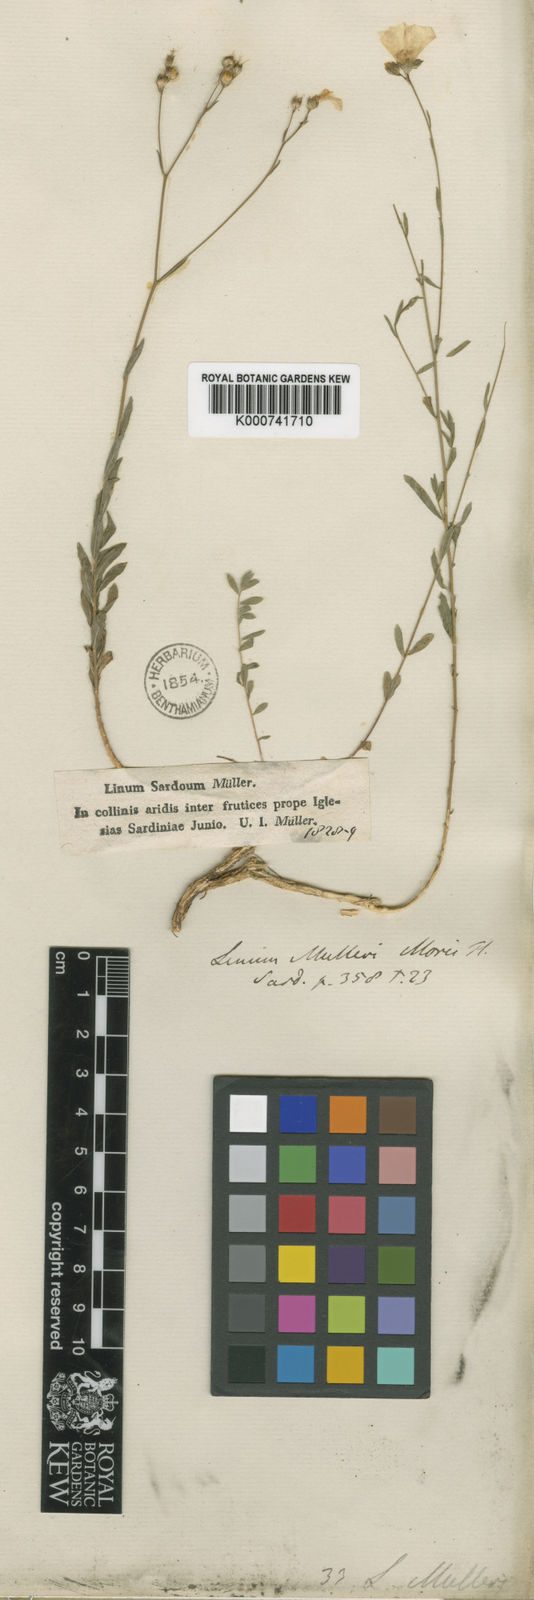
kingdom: Plantae
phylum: Tracheophyta
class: Magnoliopsida
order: Malpighiales
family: Linaceae
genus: Linum
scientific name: Linum maritimum
